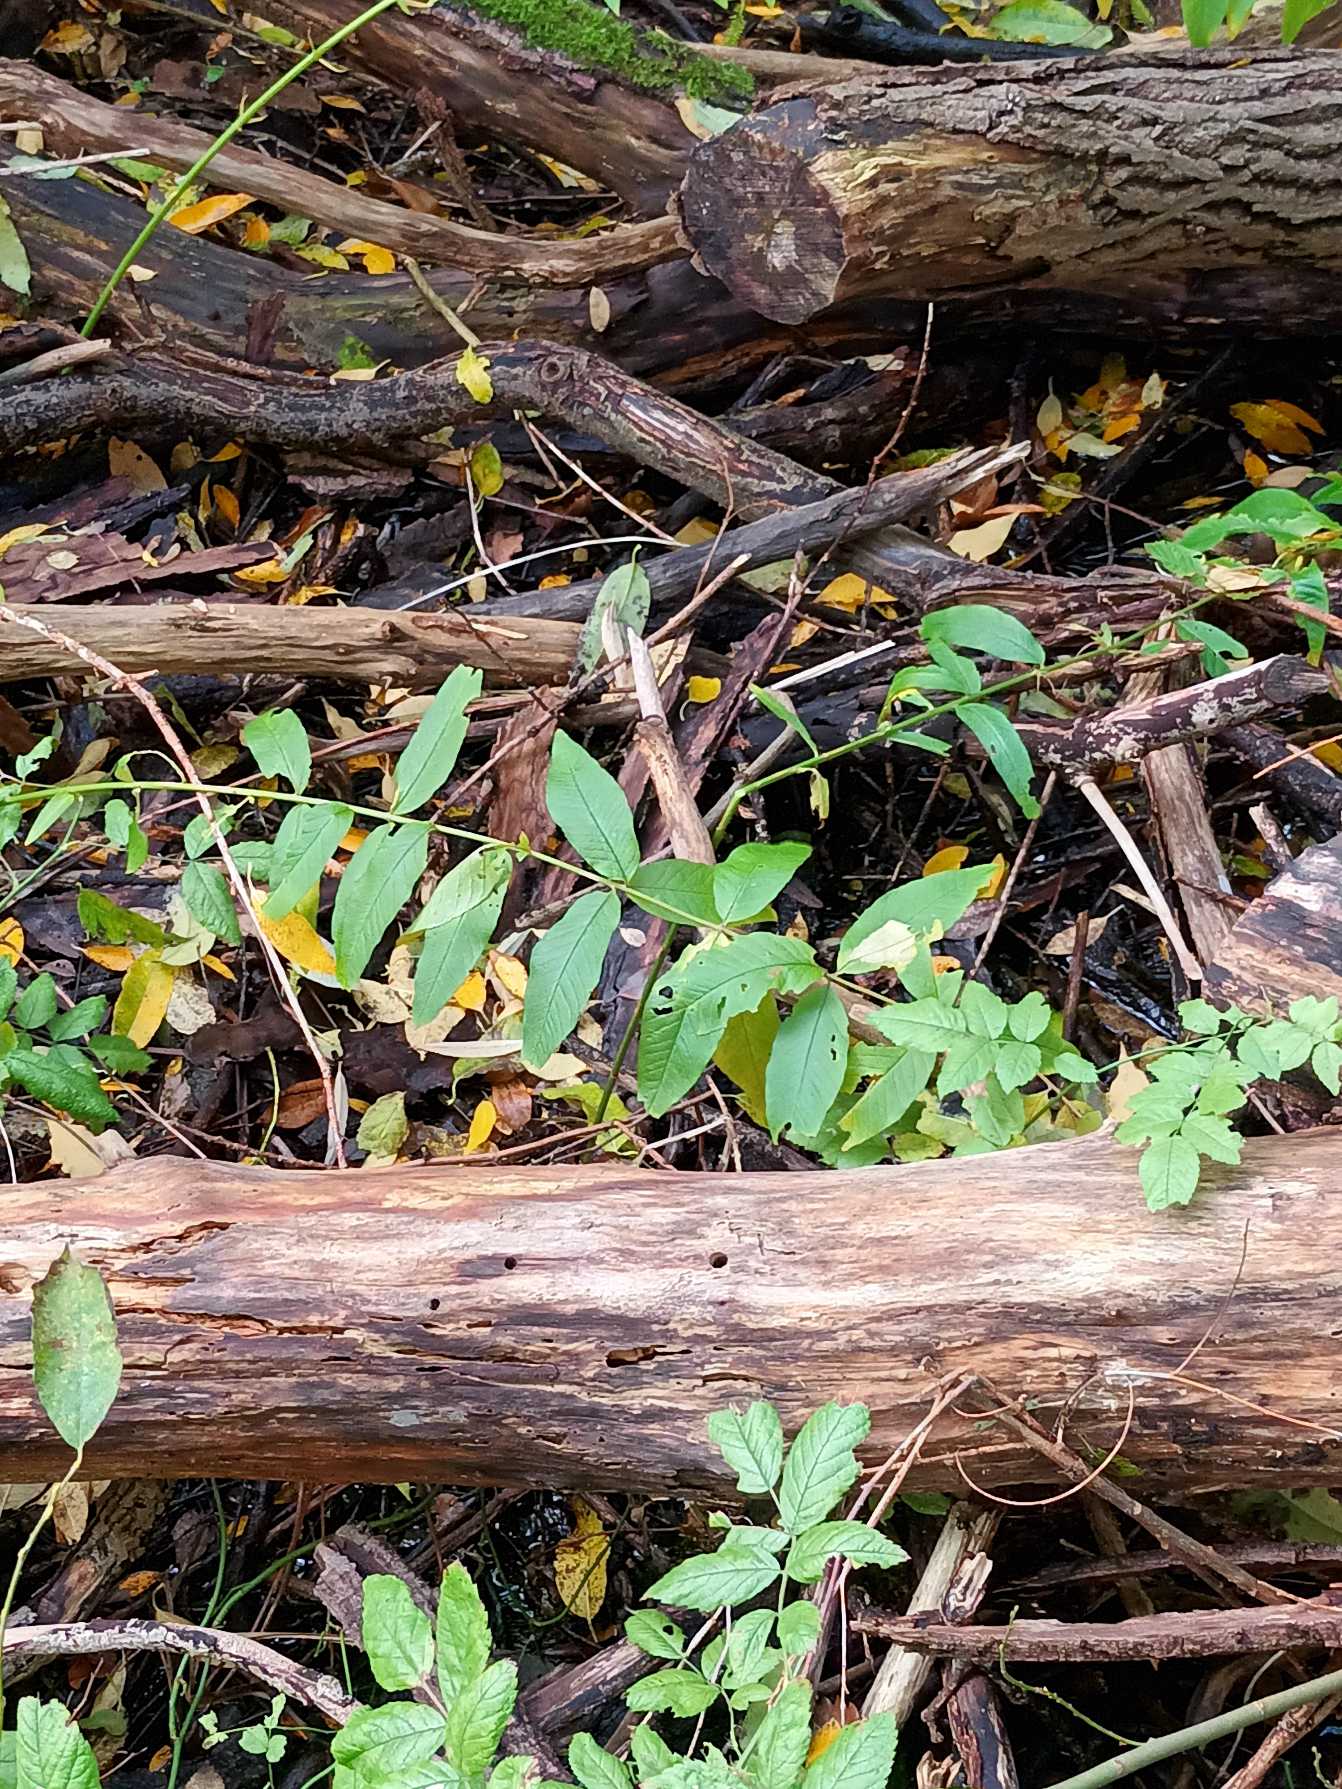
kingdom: Plantae
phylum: Tracheophyta
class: Magnoliopsida
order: Ericales
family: Primulaceae
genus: Lysimachia
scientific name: Lysimachia vulgaris
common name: Almindelig fredløs
